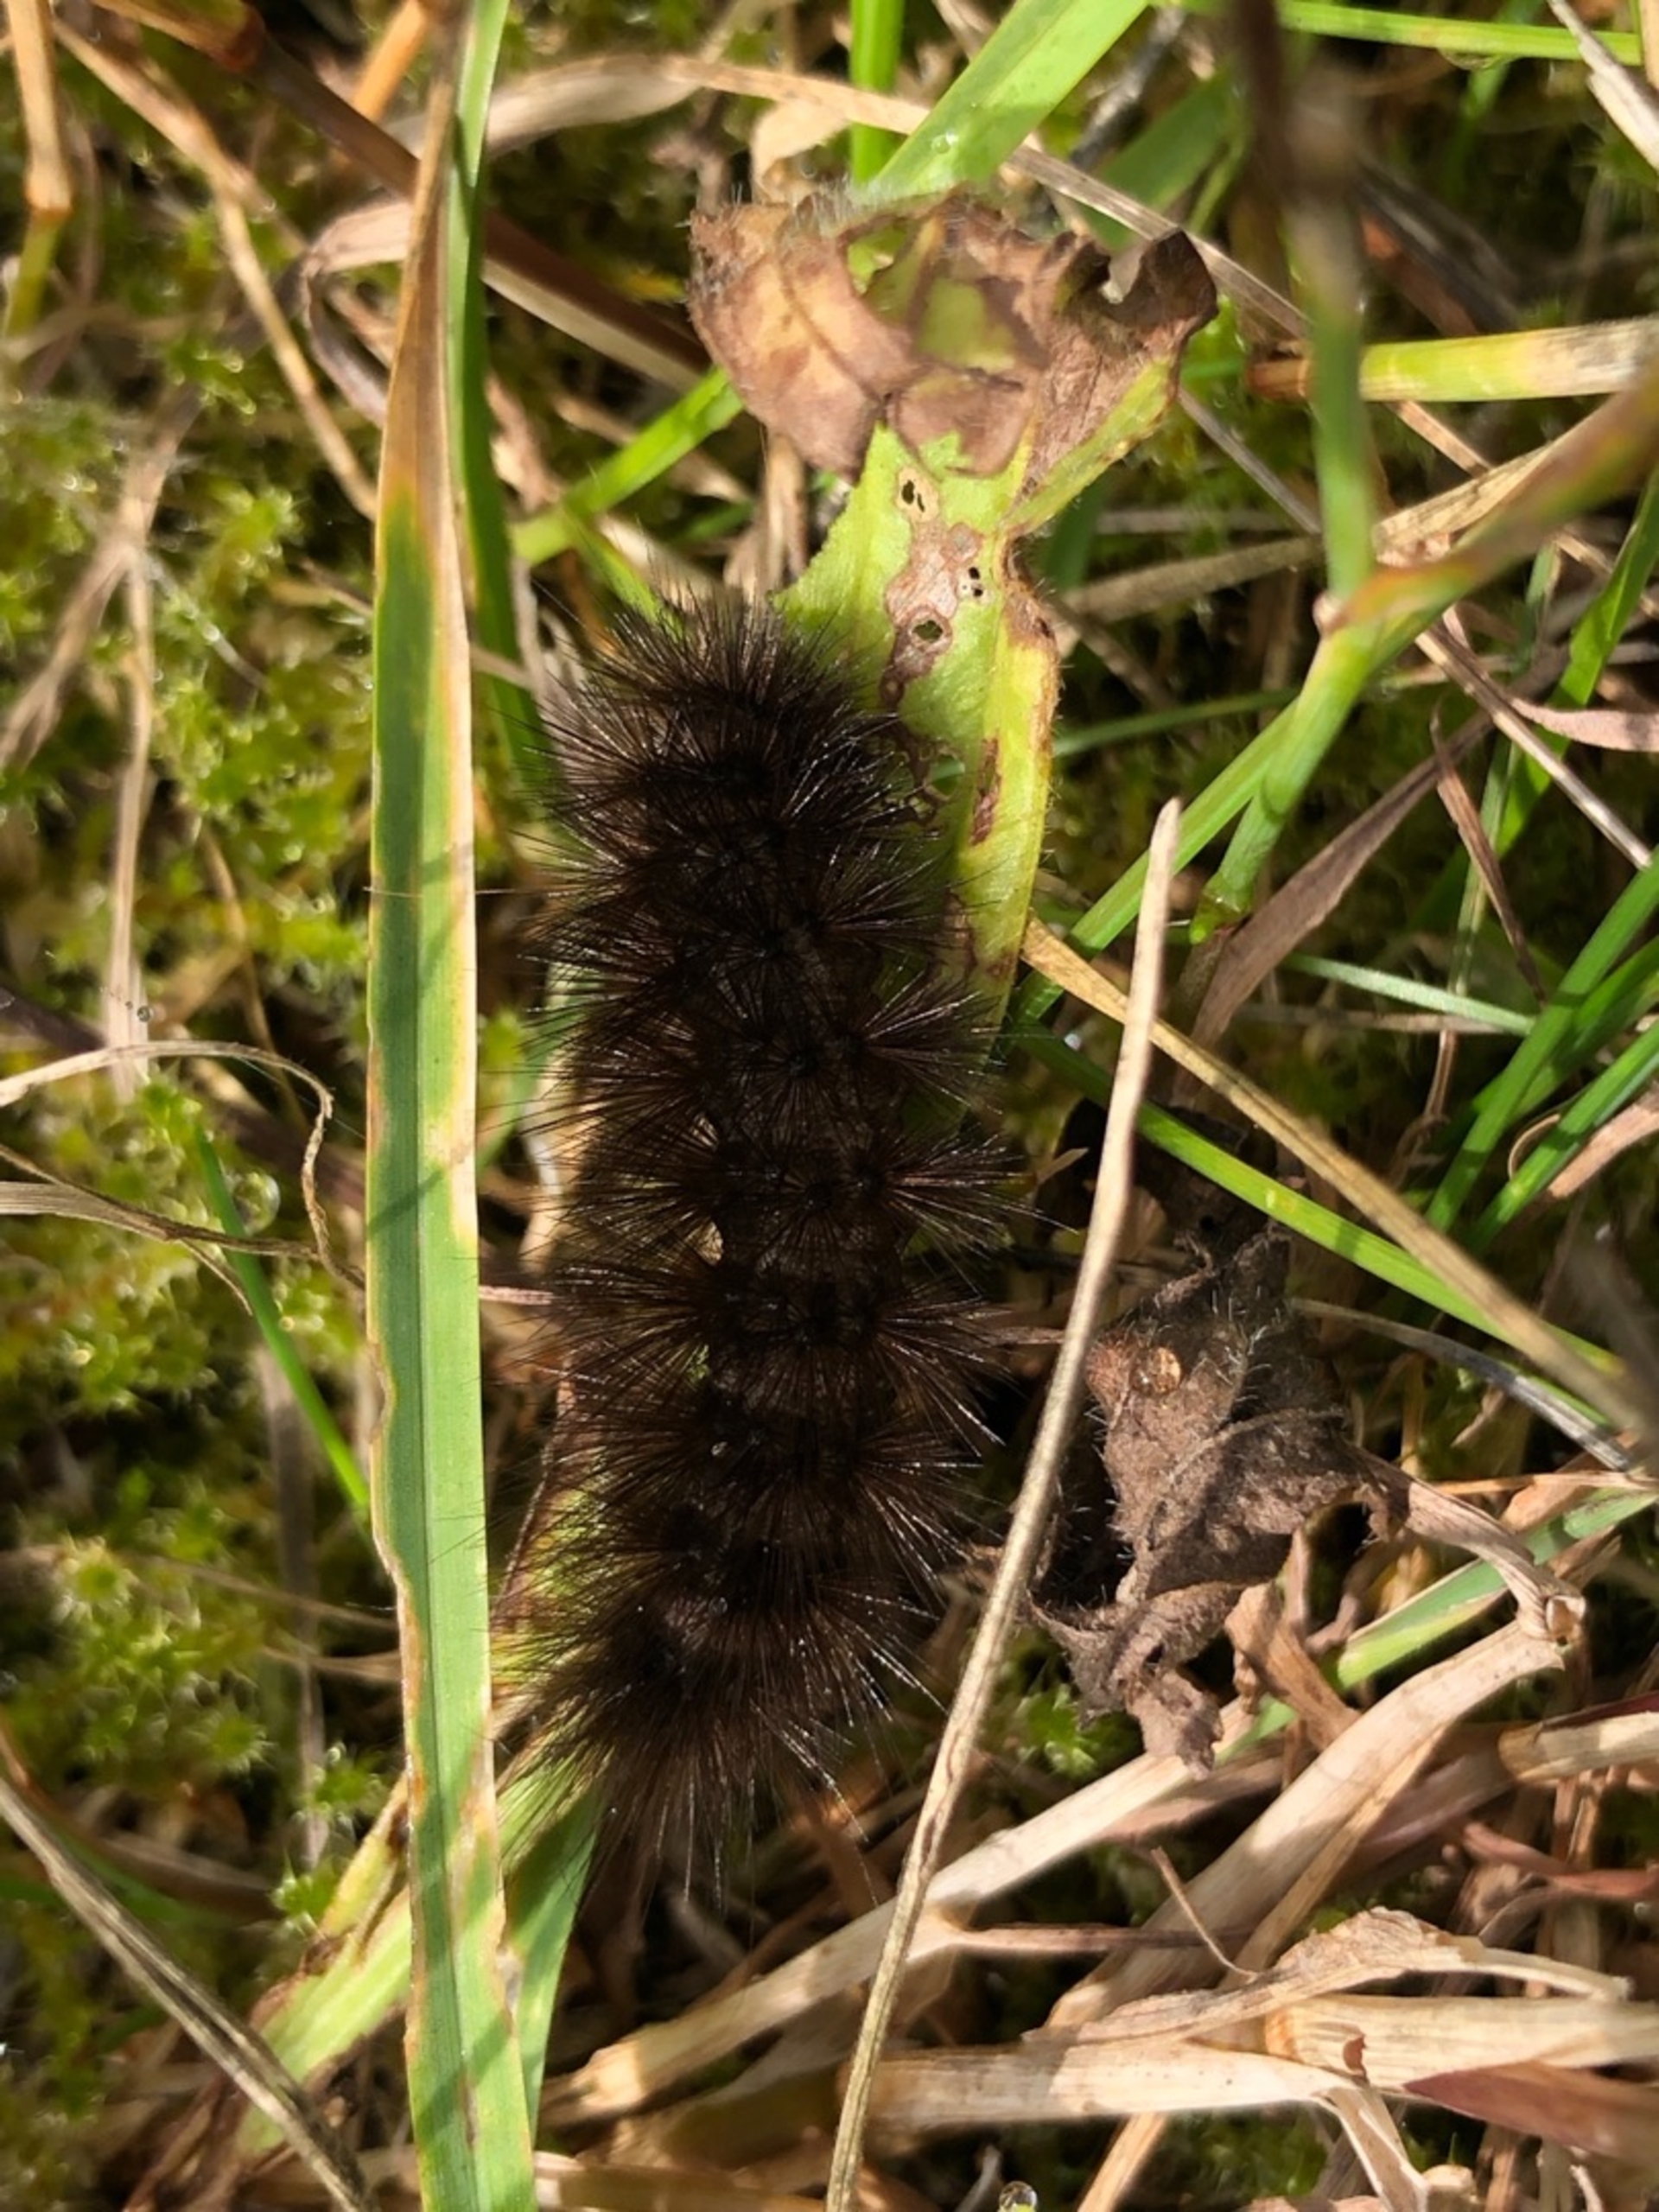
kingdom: Animalia
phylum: Arthropoda
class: Insecta
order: Lepidoptera
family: Erebidae
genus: Phragmatobia
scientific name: Phragmatobia fuliginosa
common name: Kanelbjørn
